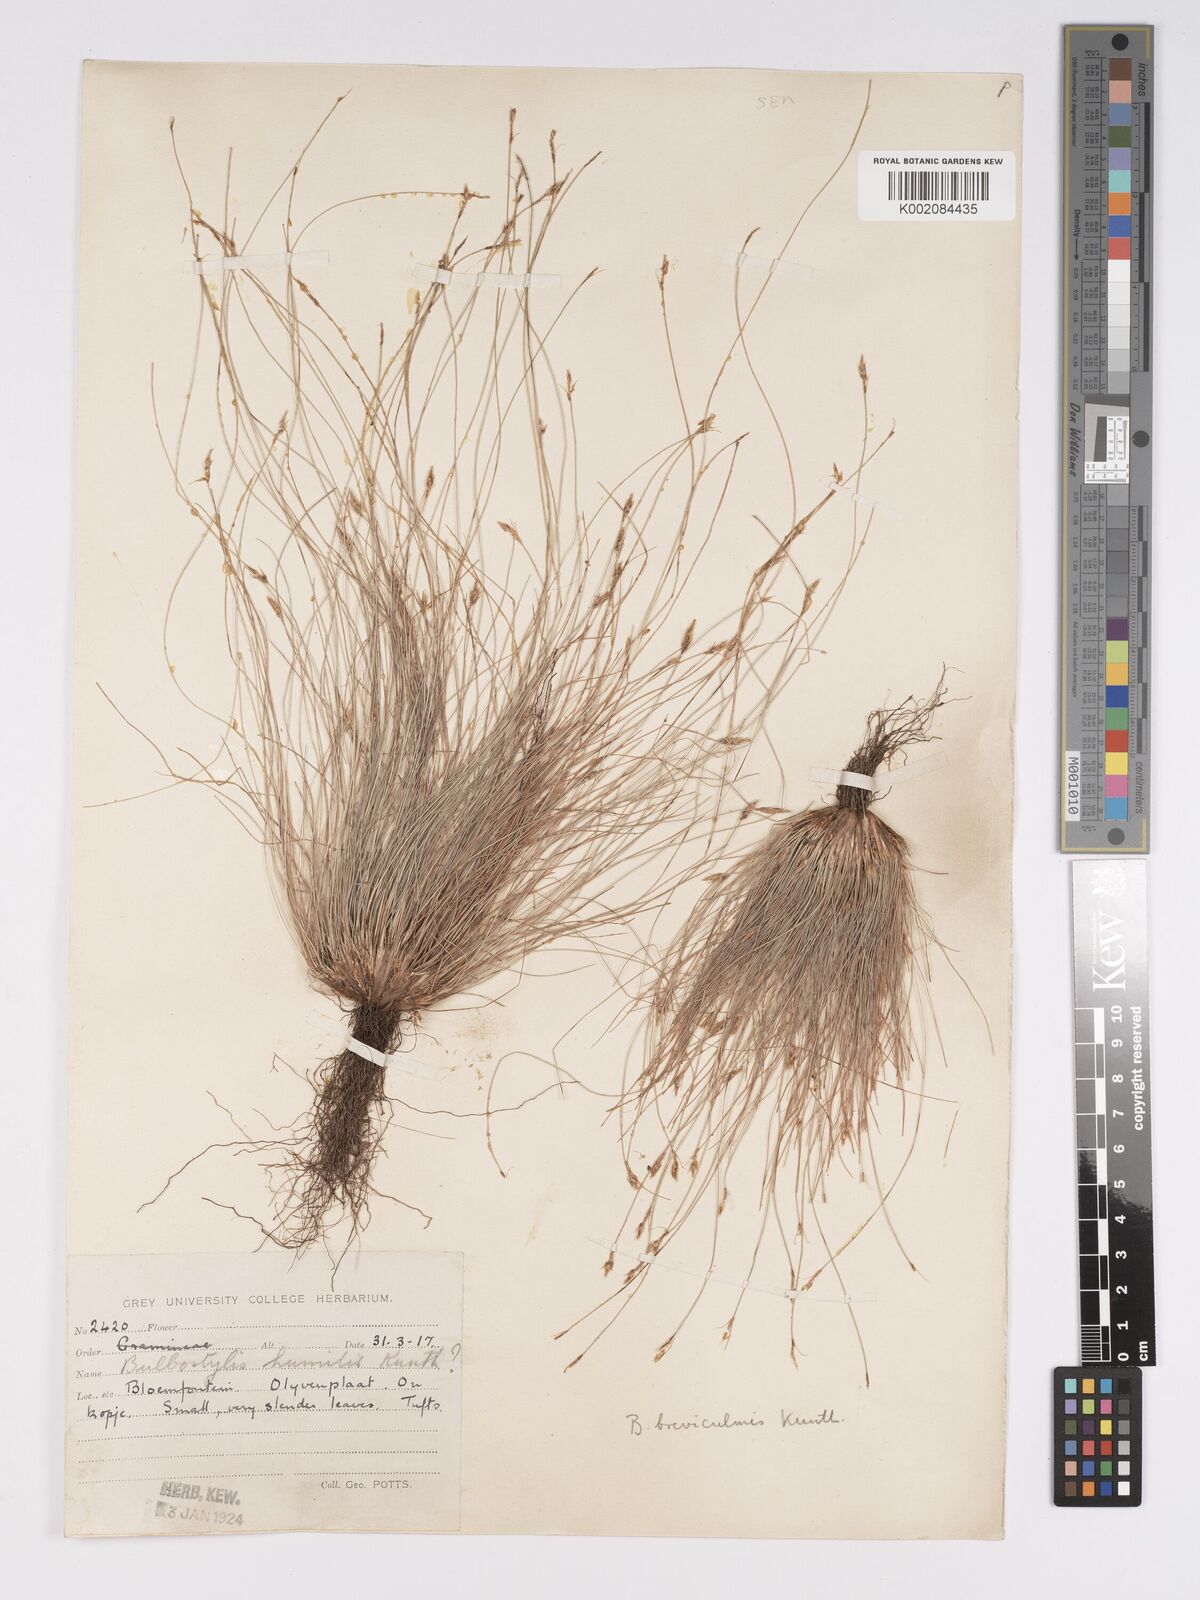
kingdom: Plantae
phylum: Tracheophyta
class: Liliopsida
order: Poales
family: Cyperaceae
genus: Bulbostylis
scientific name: Bulbostylis humilis
